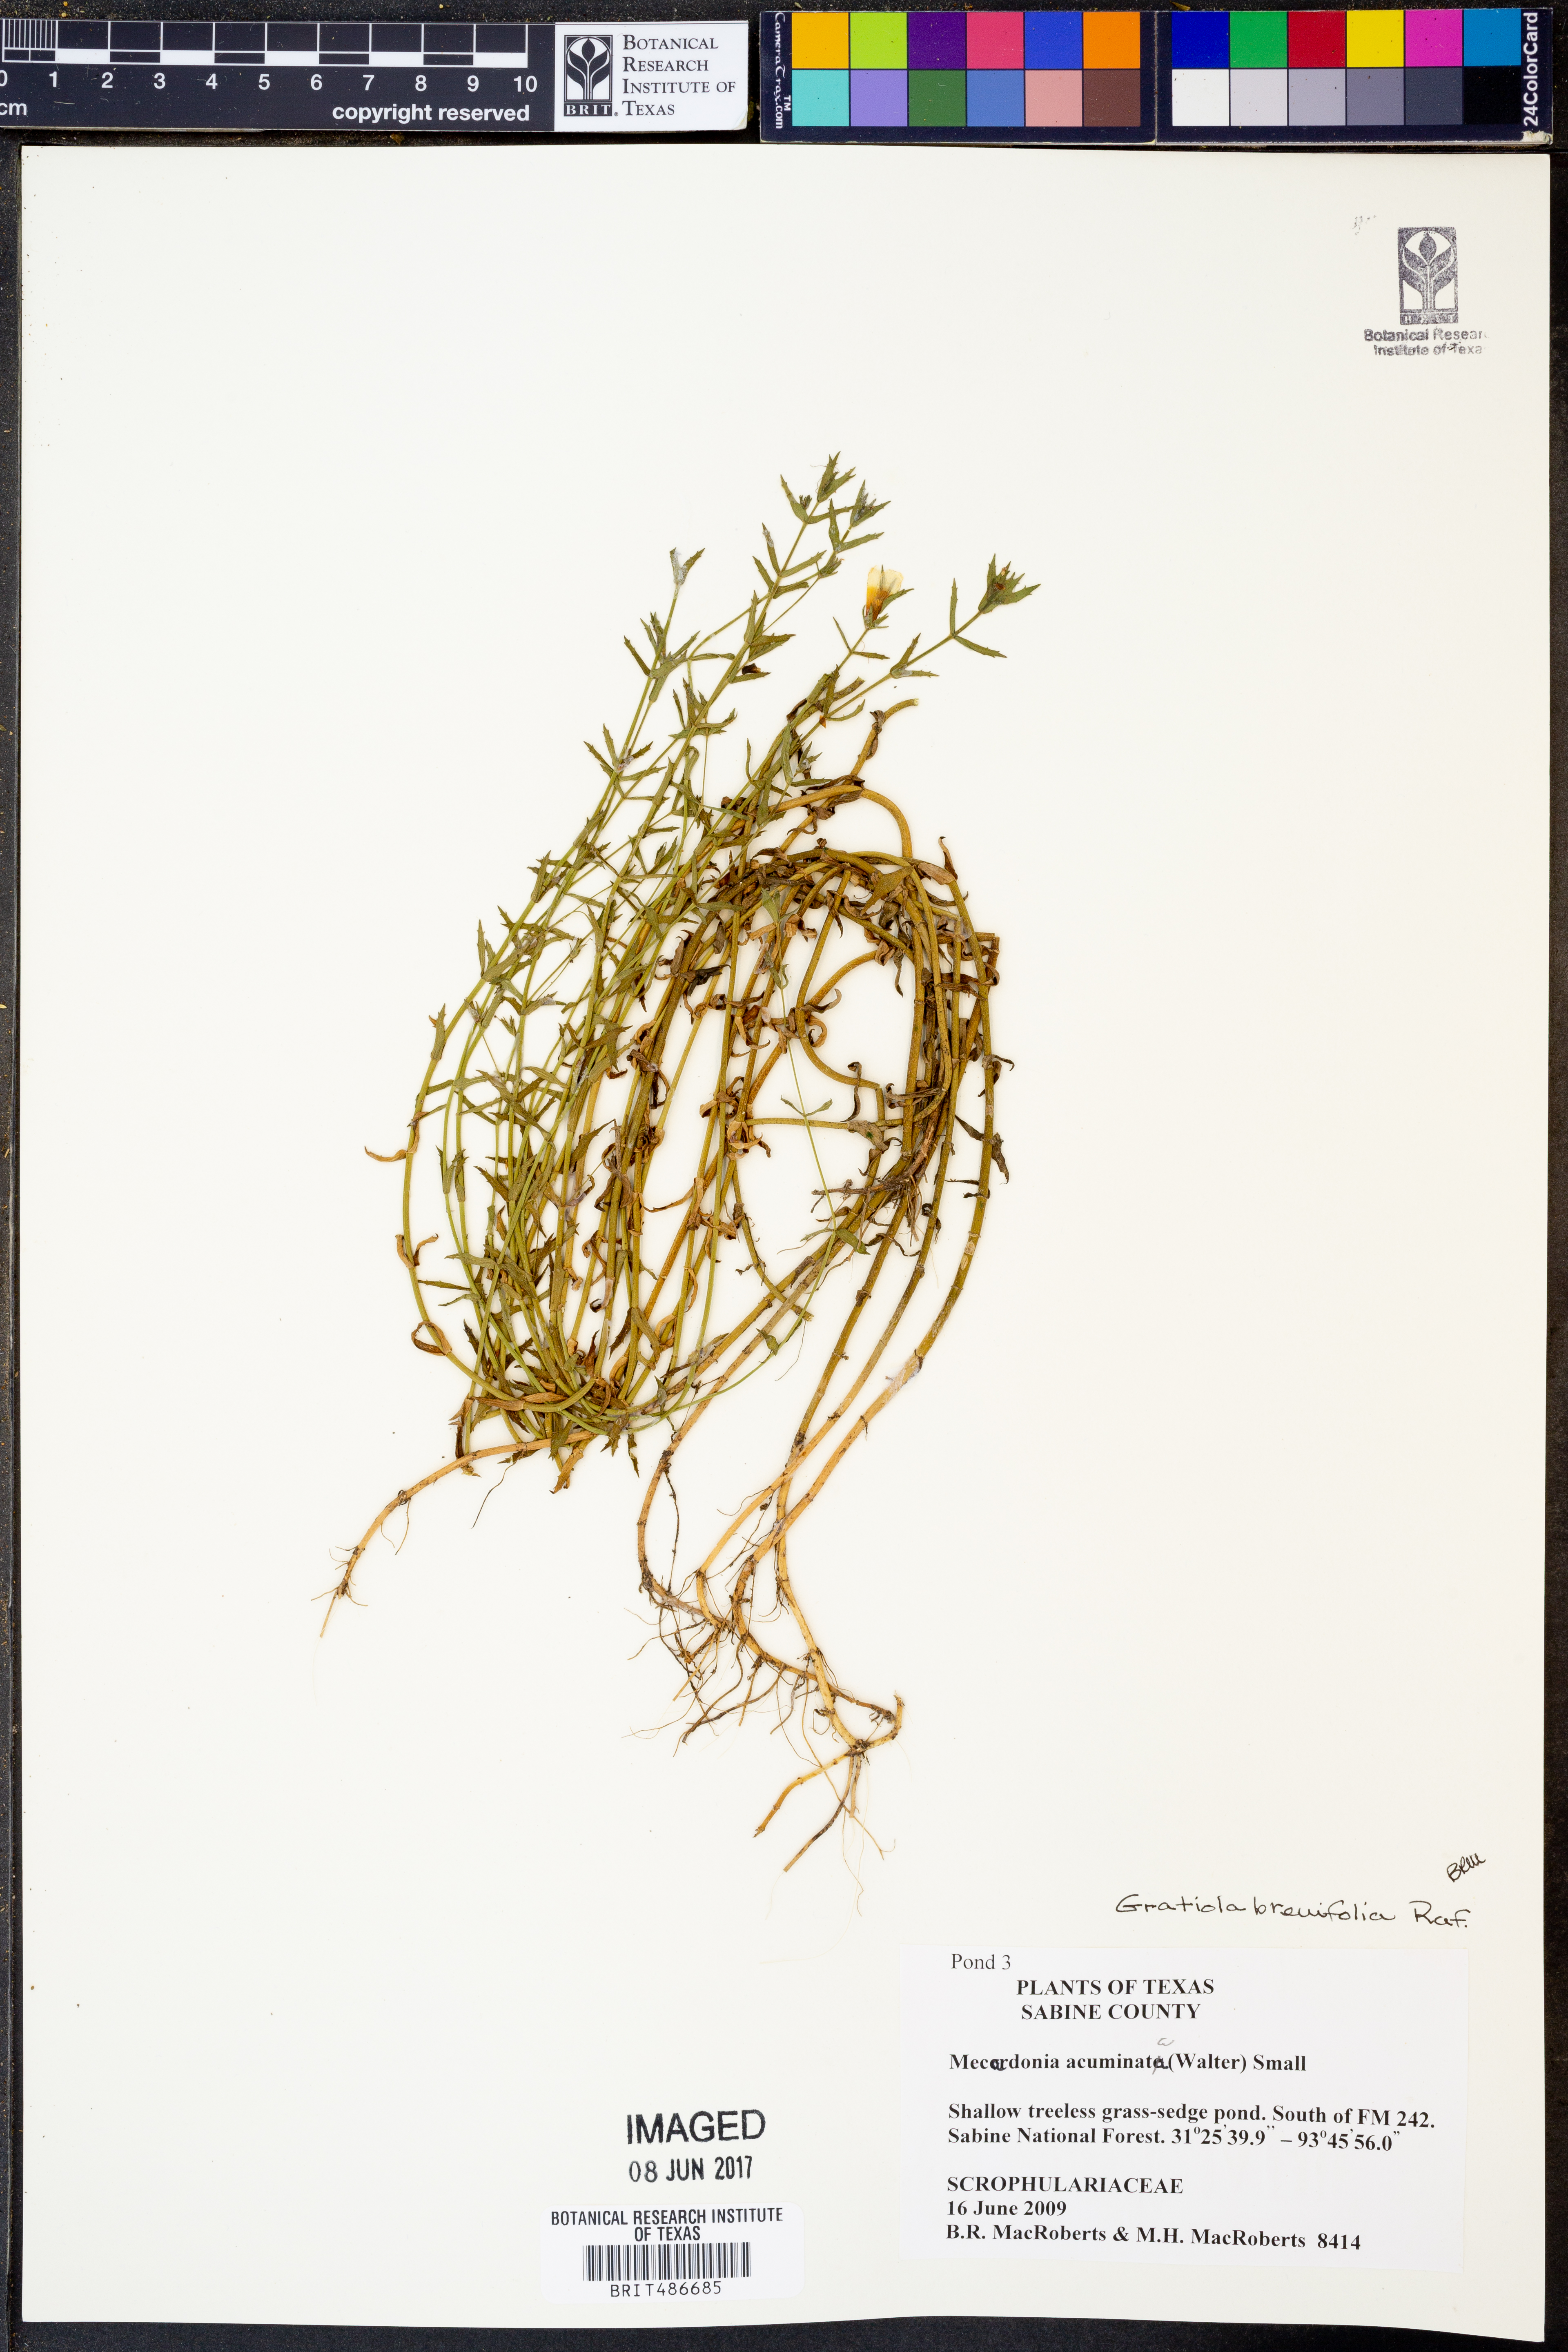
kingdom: Plantae
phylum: Tracheophyta
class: Magnoliopsida
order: Lamiales
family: Plantaginaceae
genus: Mecardonia
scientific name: Mecardonia acuminata
